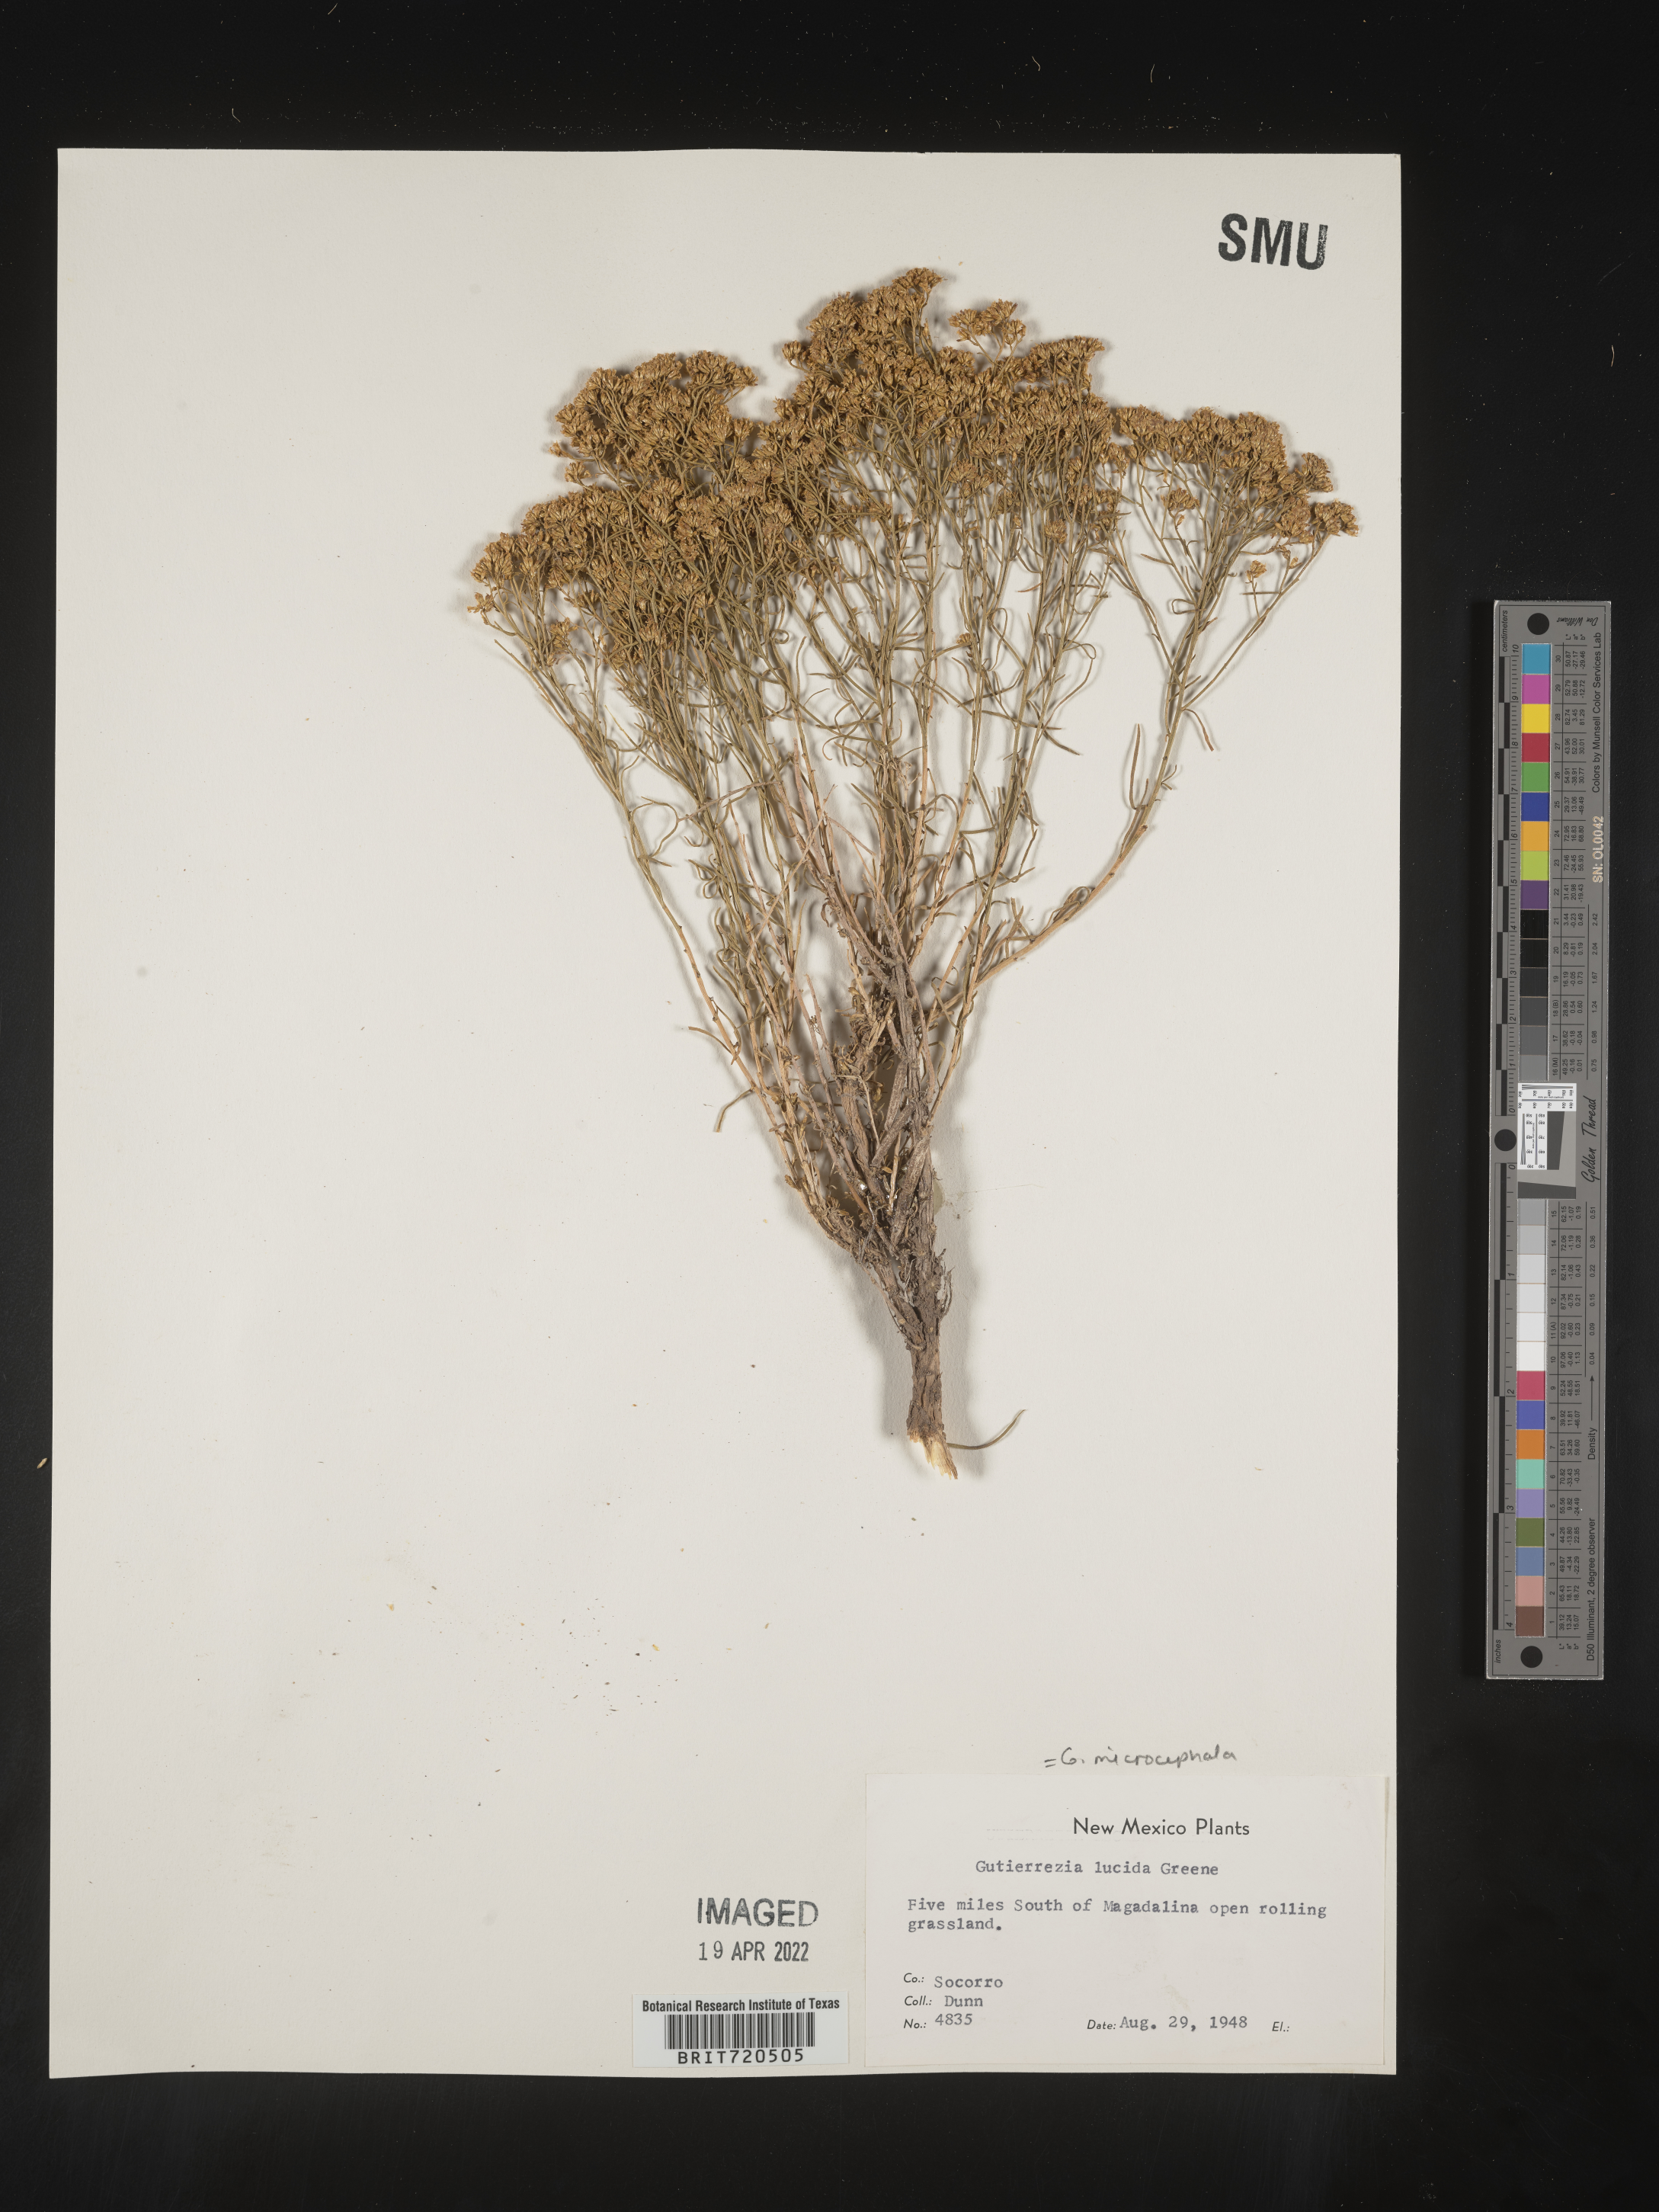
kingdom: Plantae
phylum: Tracheophyta
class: Magnoliopsida
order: Asterales
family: Asteraceae
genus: Gutierrezia
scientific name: Gutierrezia microcephala
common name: Thread snakeweed
